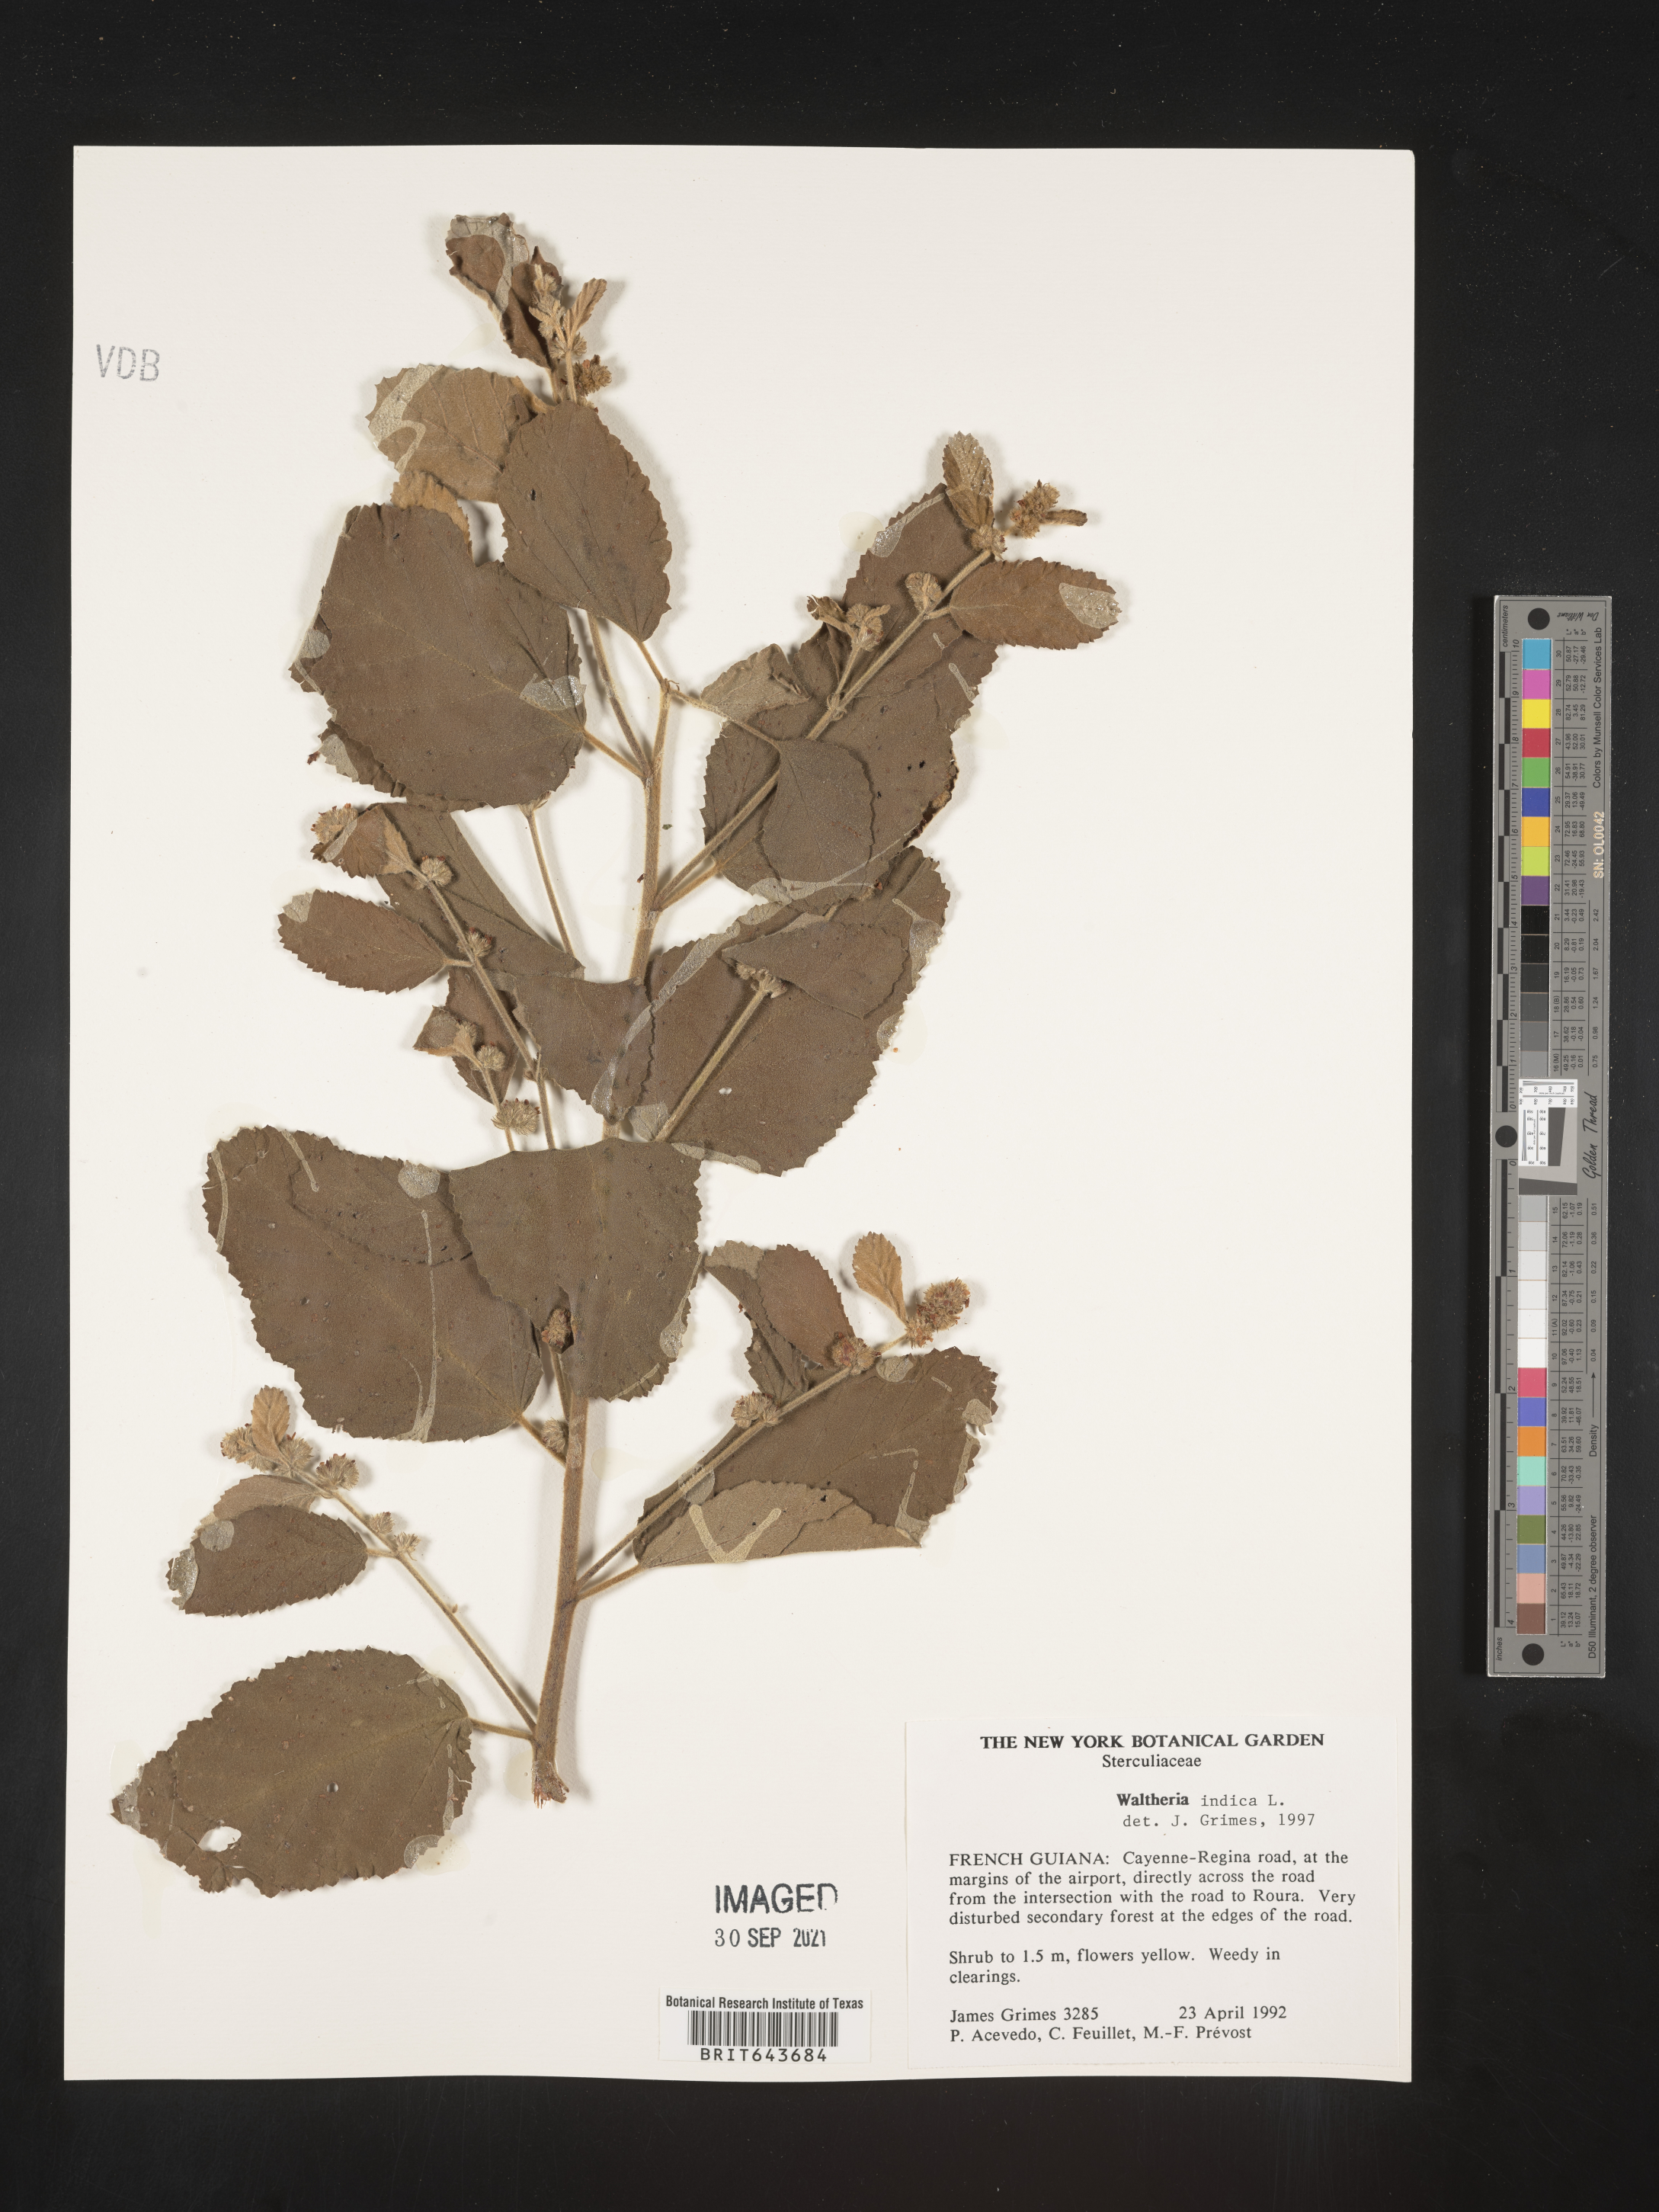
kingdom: Plantae
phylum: Tracheophyta
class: Magnoliopsida
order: Malvales
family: Malvaceae
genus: Waltheria
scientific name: Waltheria
